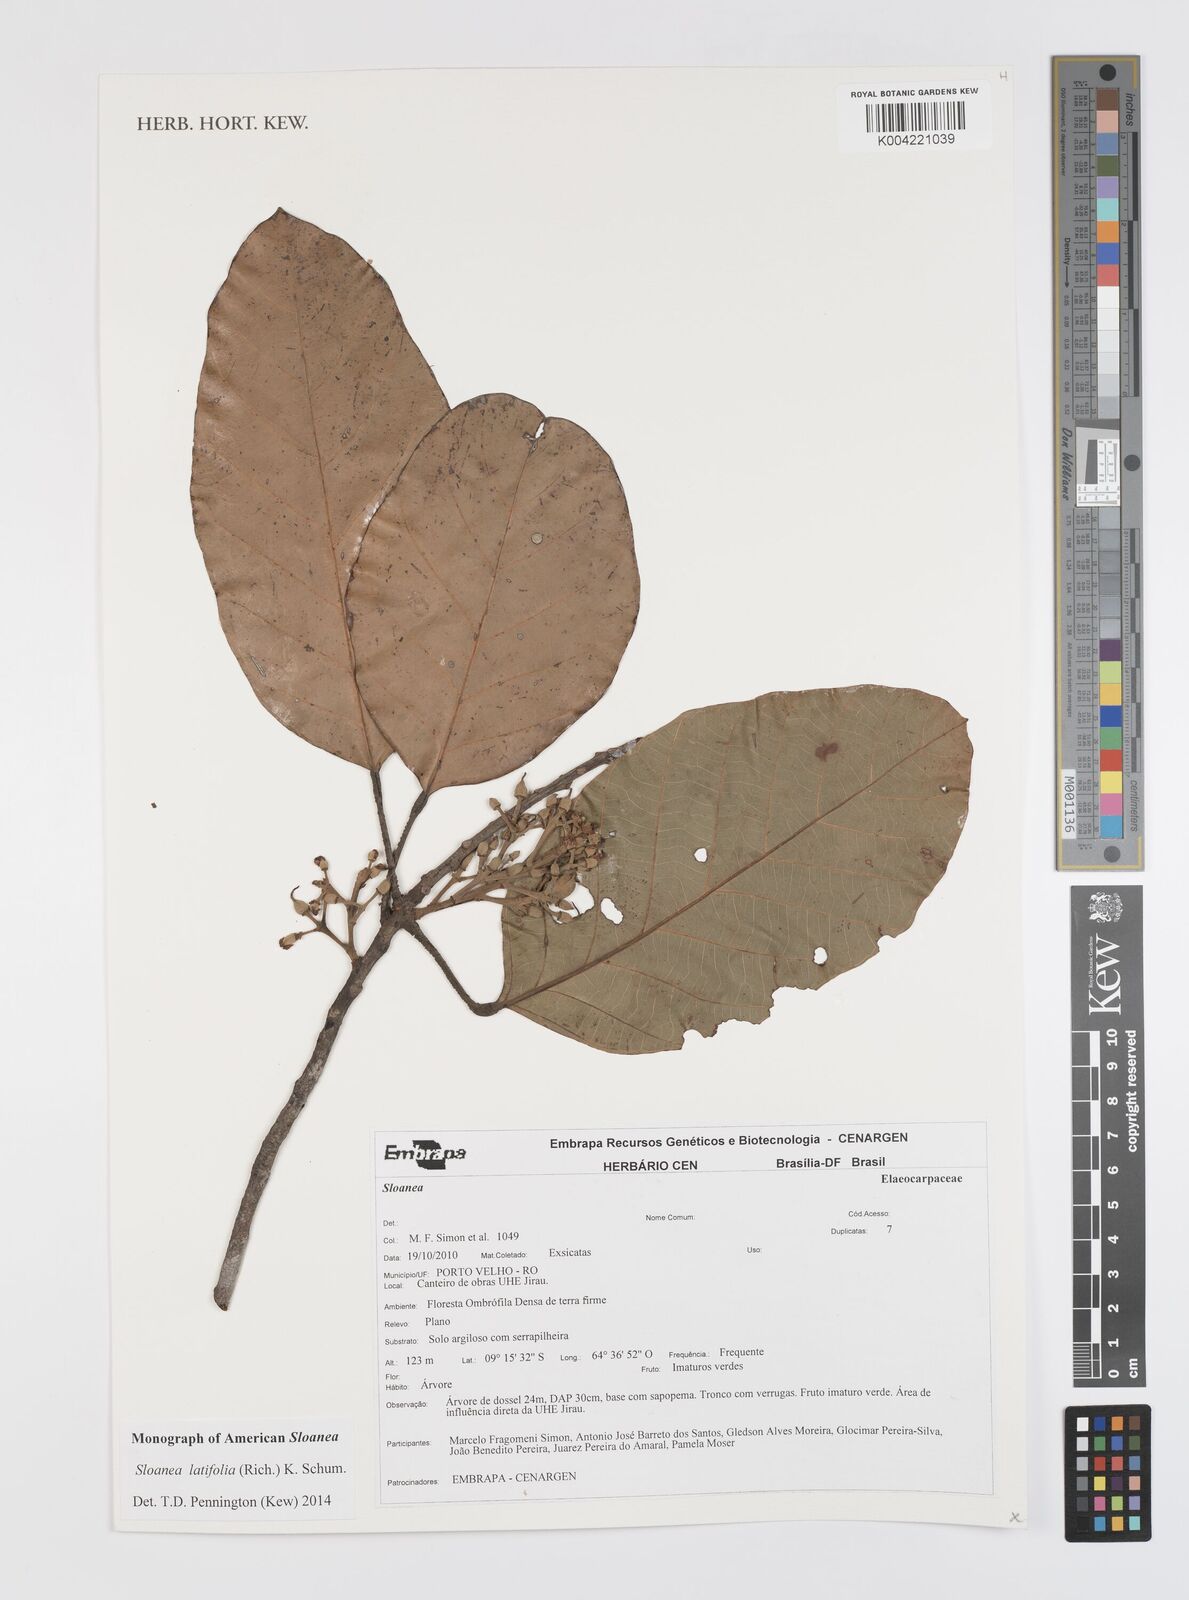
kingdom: Plantae
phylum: Tracheophyta
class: Magnoliopsida
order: Oxalidales
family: Elaeocarpaceae
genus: Sloanea
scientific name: Sloanea latifolia
